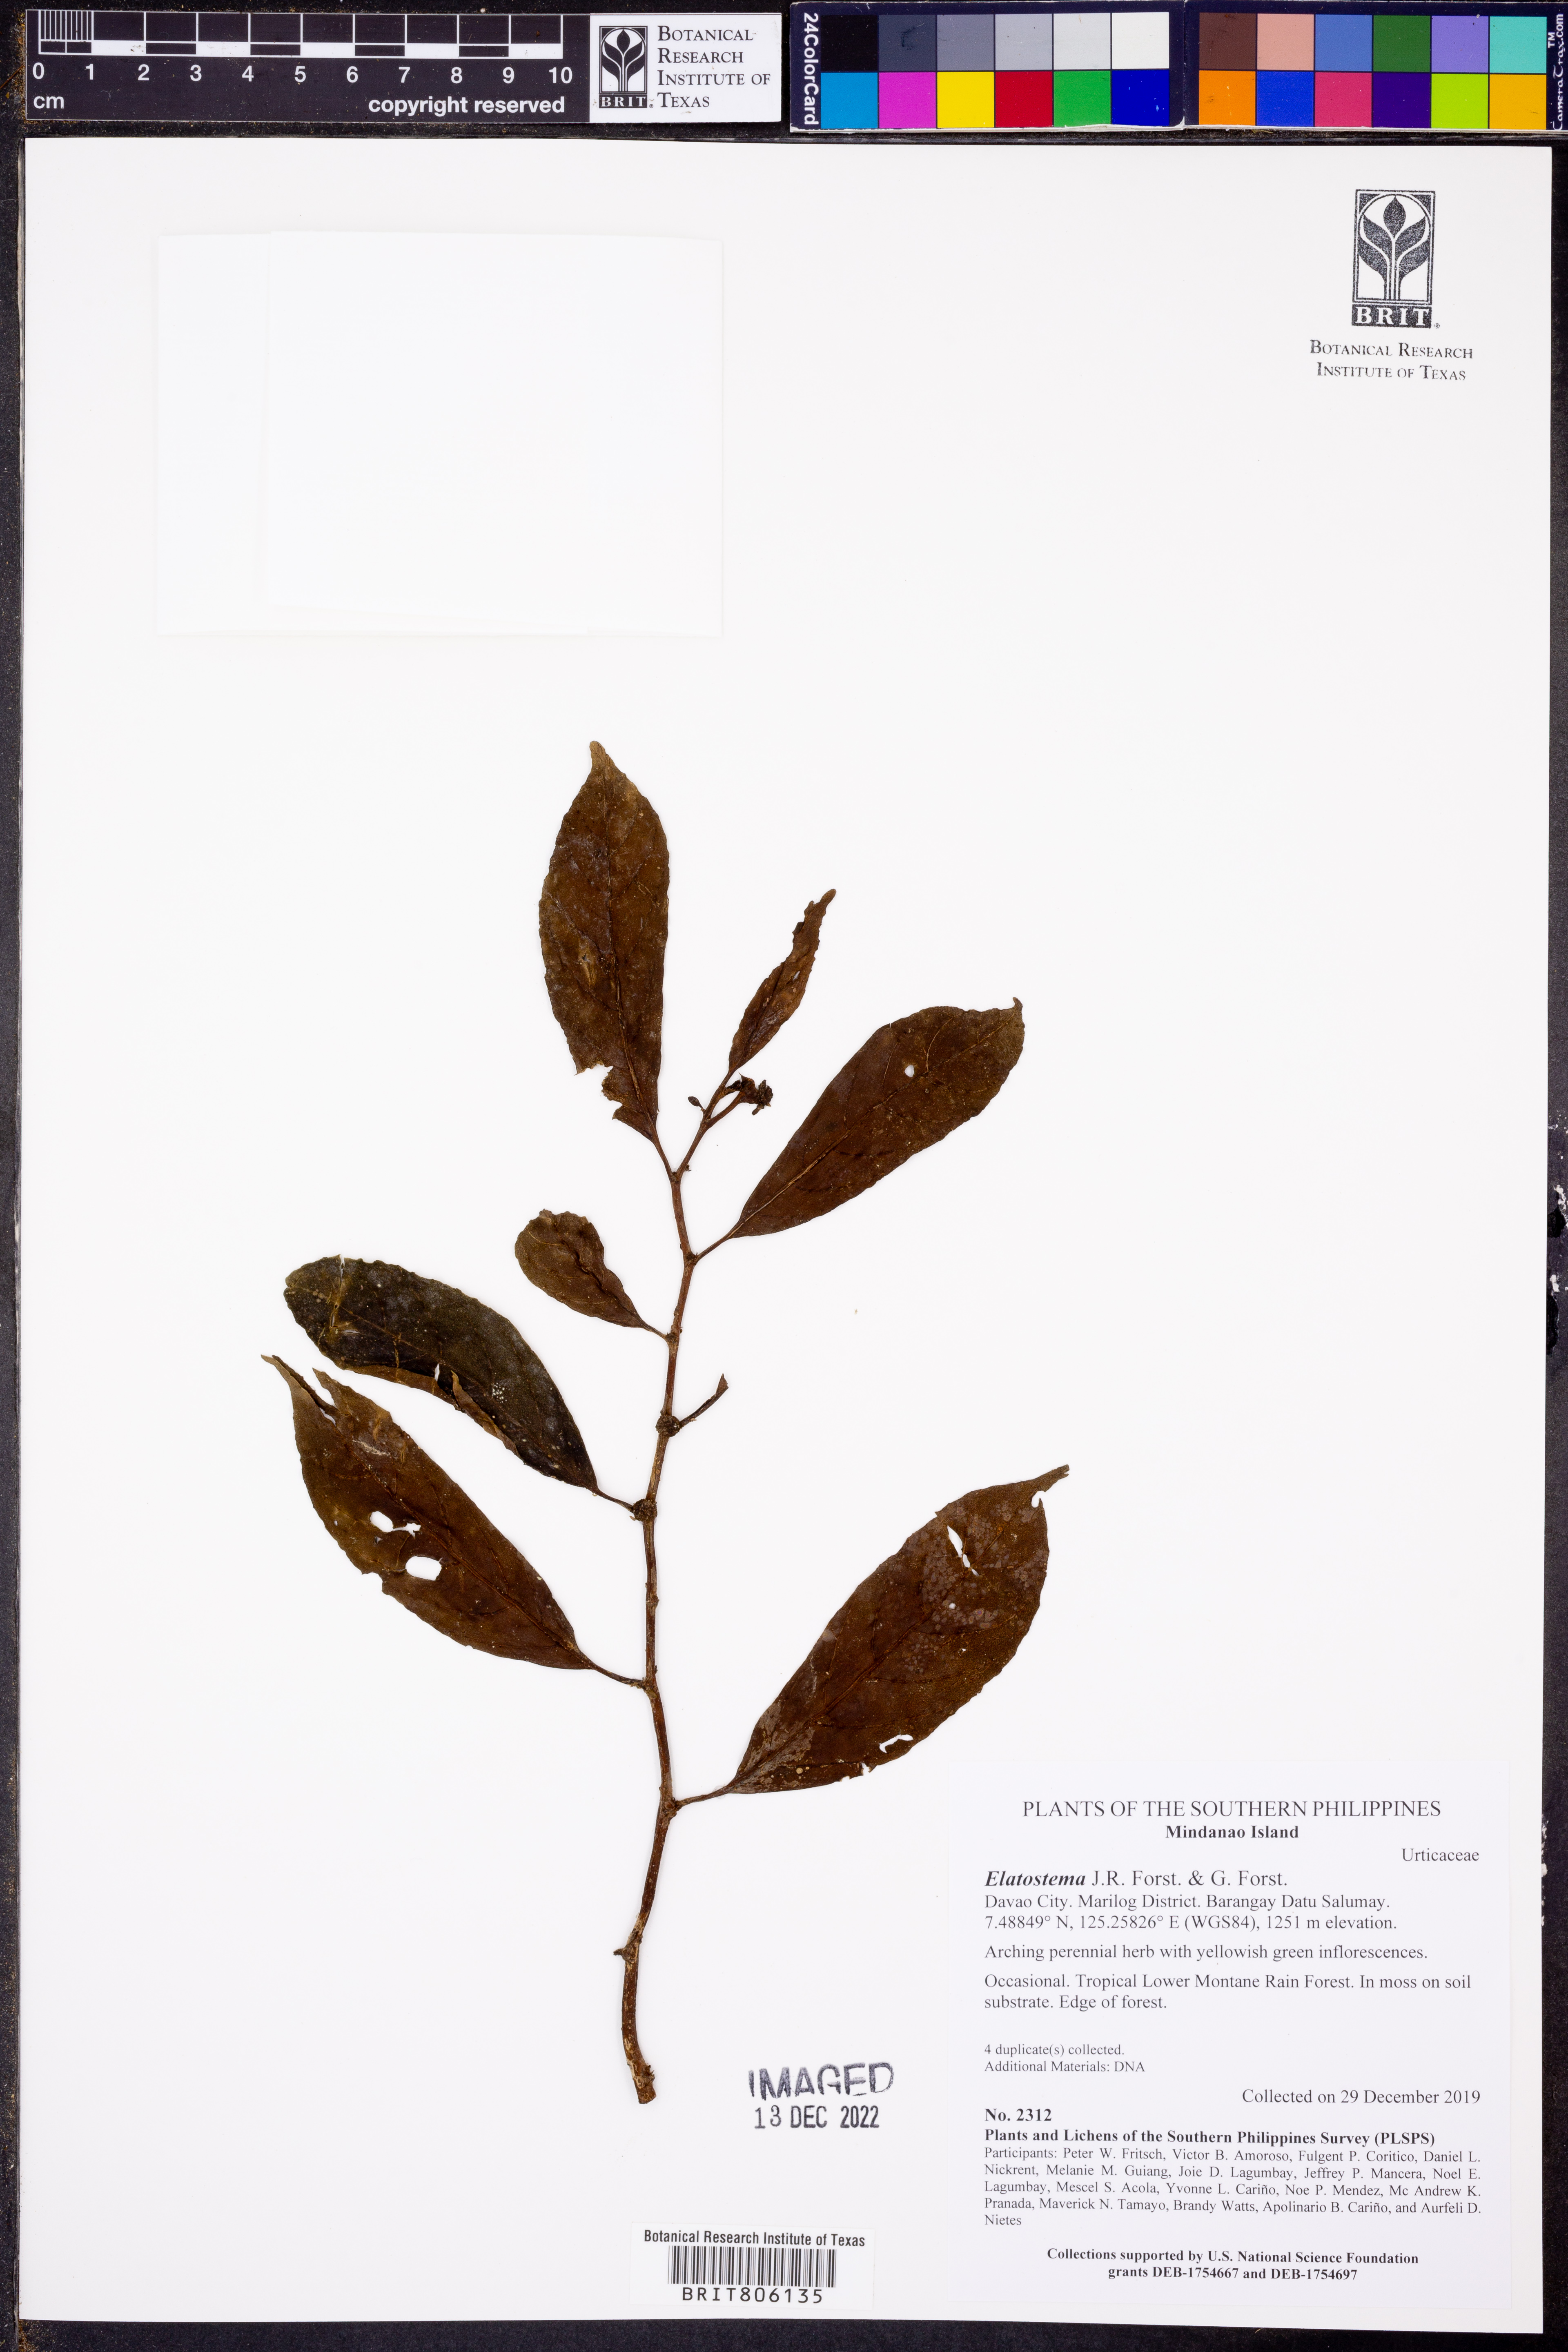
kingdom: Plantae
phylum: Tracheophyta
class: Magnoliopsida
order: Rosales
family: Urticaceae
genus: Elatostema
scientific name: Elatostema
